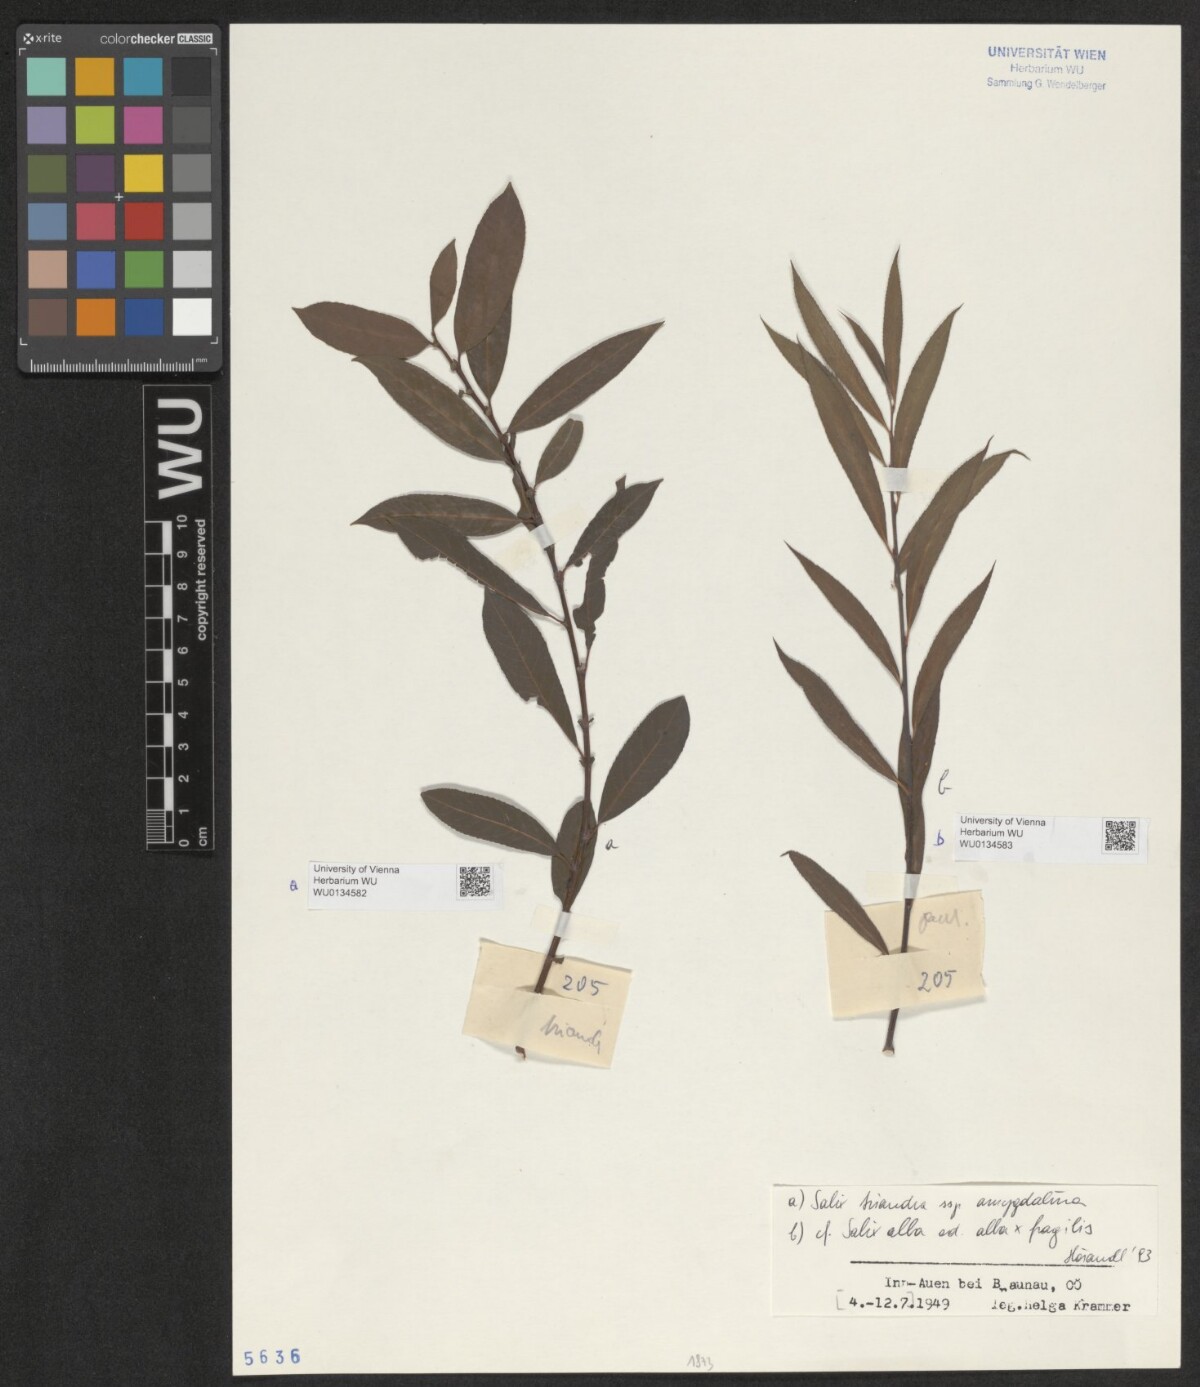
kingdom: Plantae
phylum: Tracheophyta
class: Magnoliopsida
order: Malpighiales
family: Salicaceae
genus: Salix
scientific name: Salix alba
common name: White willow
